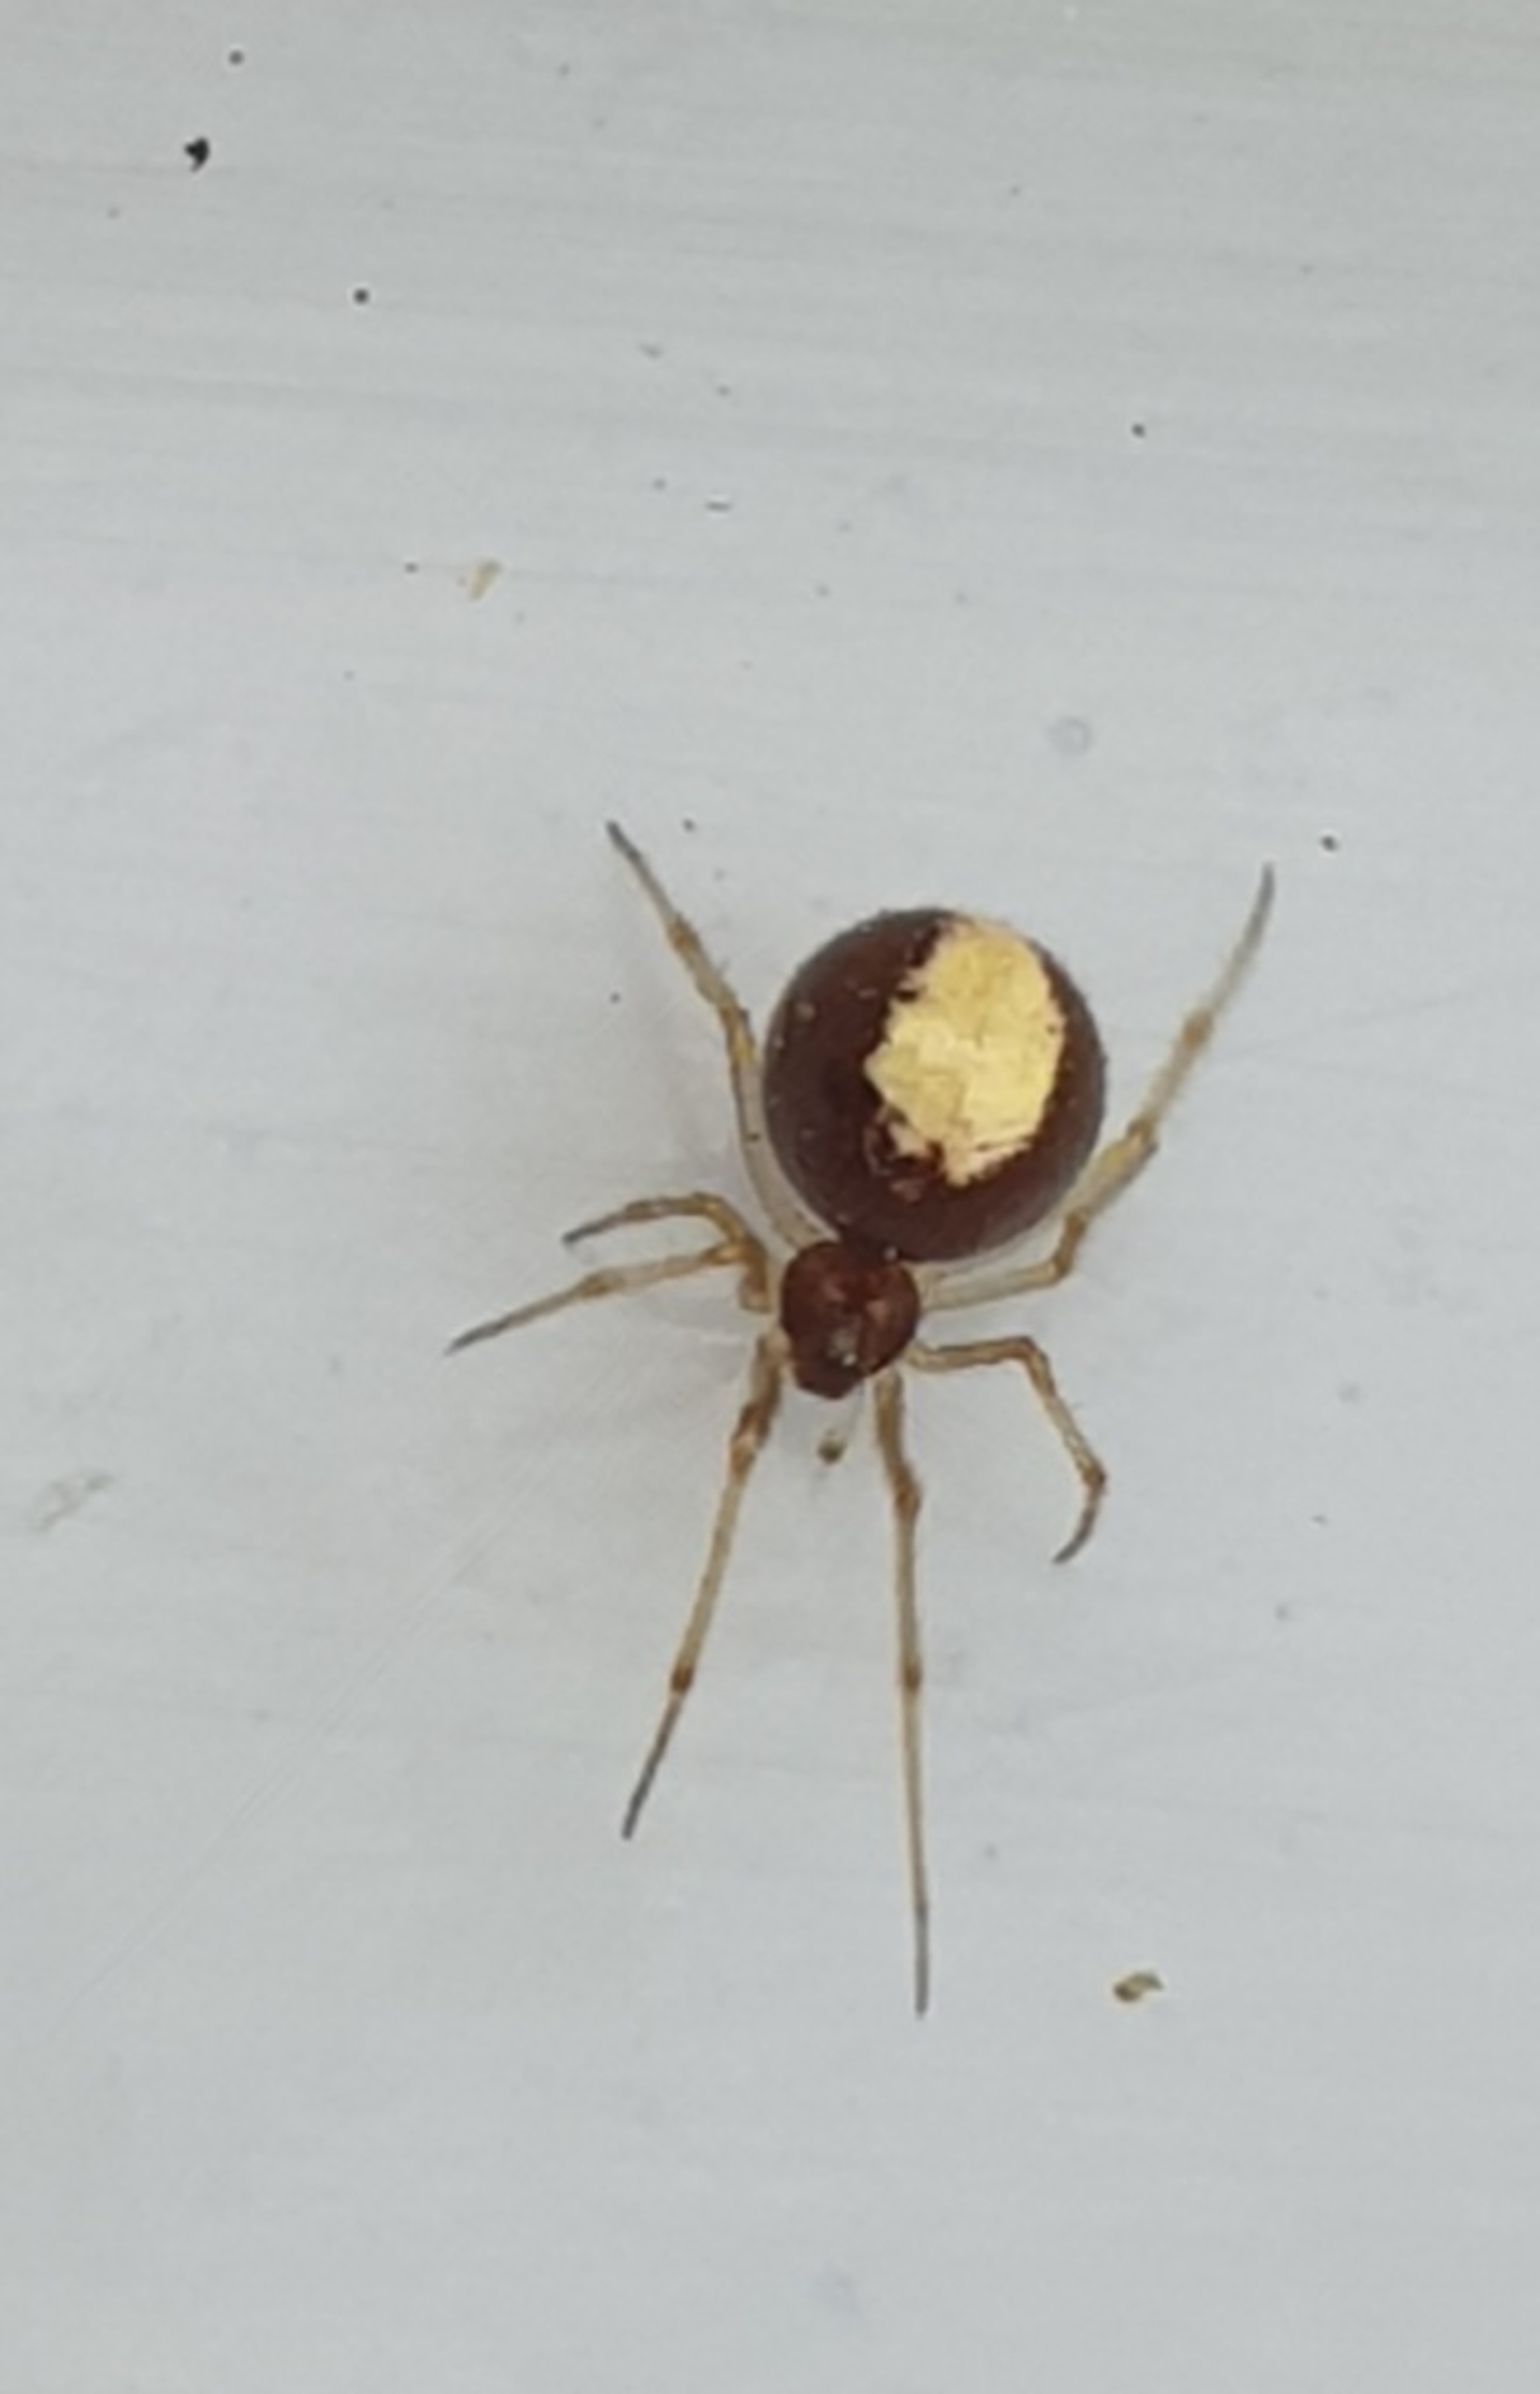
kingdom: Animalia
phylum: Arthropoda
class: Arachnida
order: Araneae
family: Theridiidae
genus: Neottiura
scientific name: Neottiura bimaculata
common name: Æggebæreren
